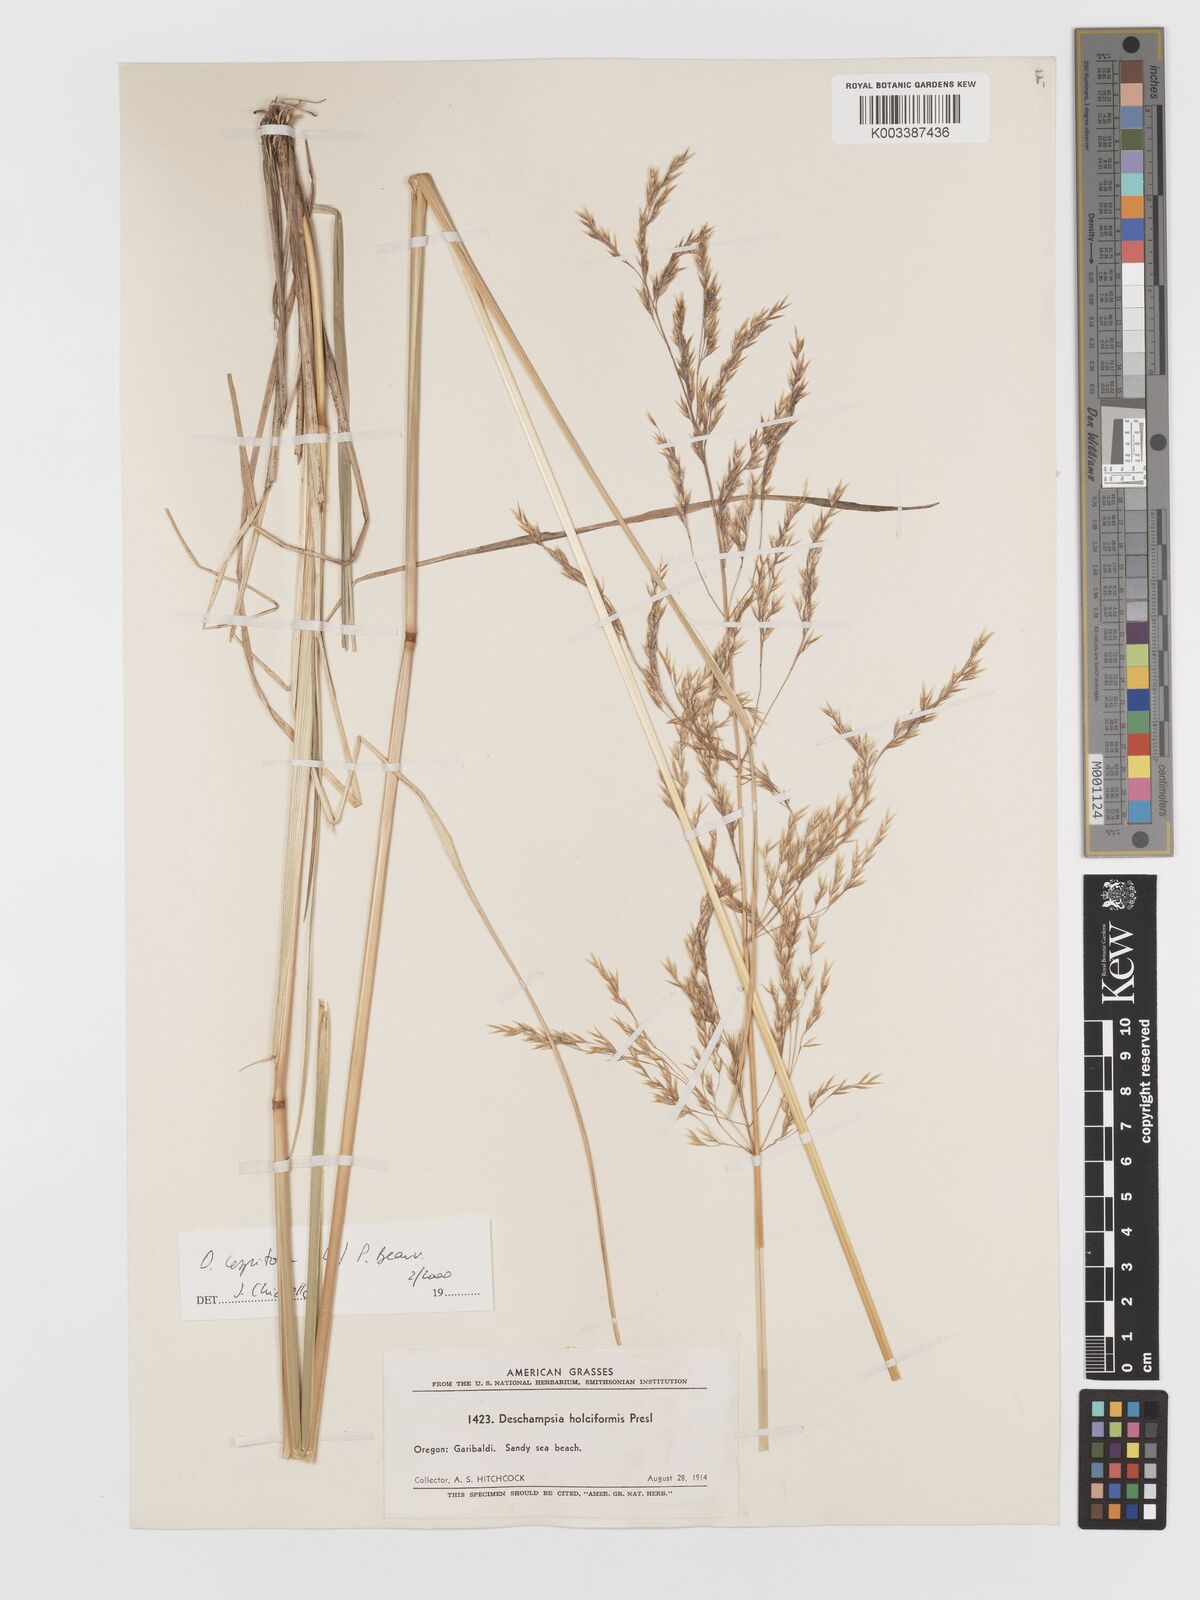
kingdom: Plantae
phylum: Tracheophyta
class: Liliopsida
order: Poales
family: Poaceae
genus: Deschampsia
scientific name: Deschampsia cespitosa
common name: Tufted hair-grass
